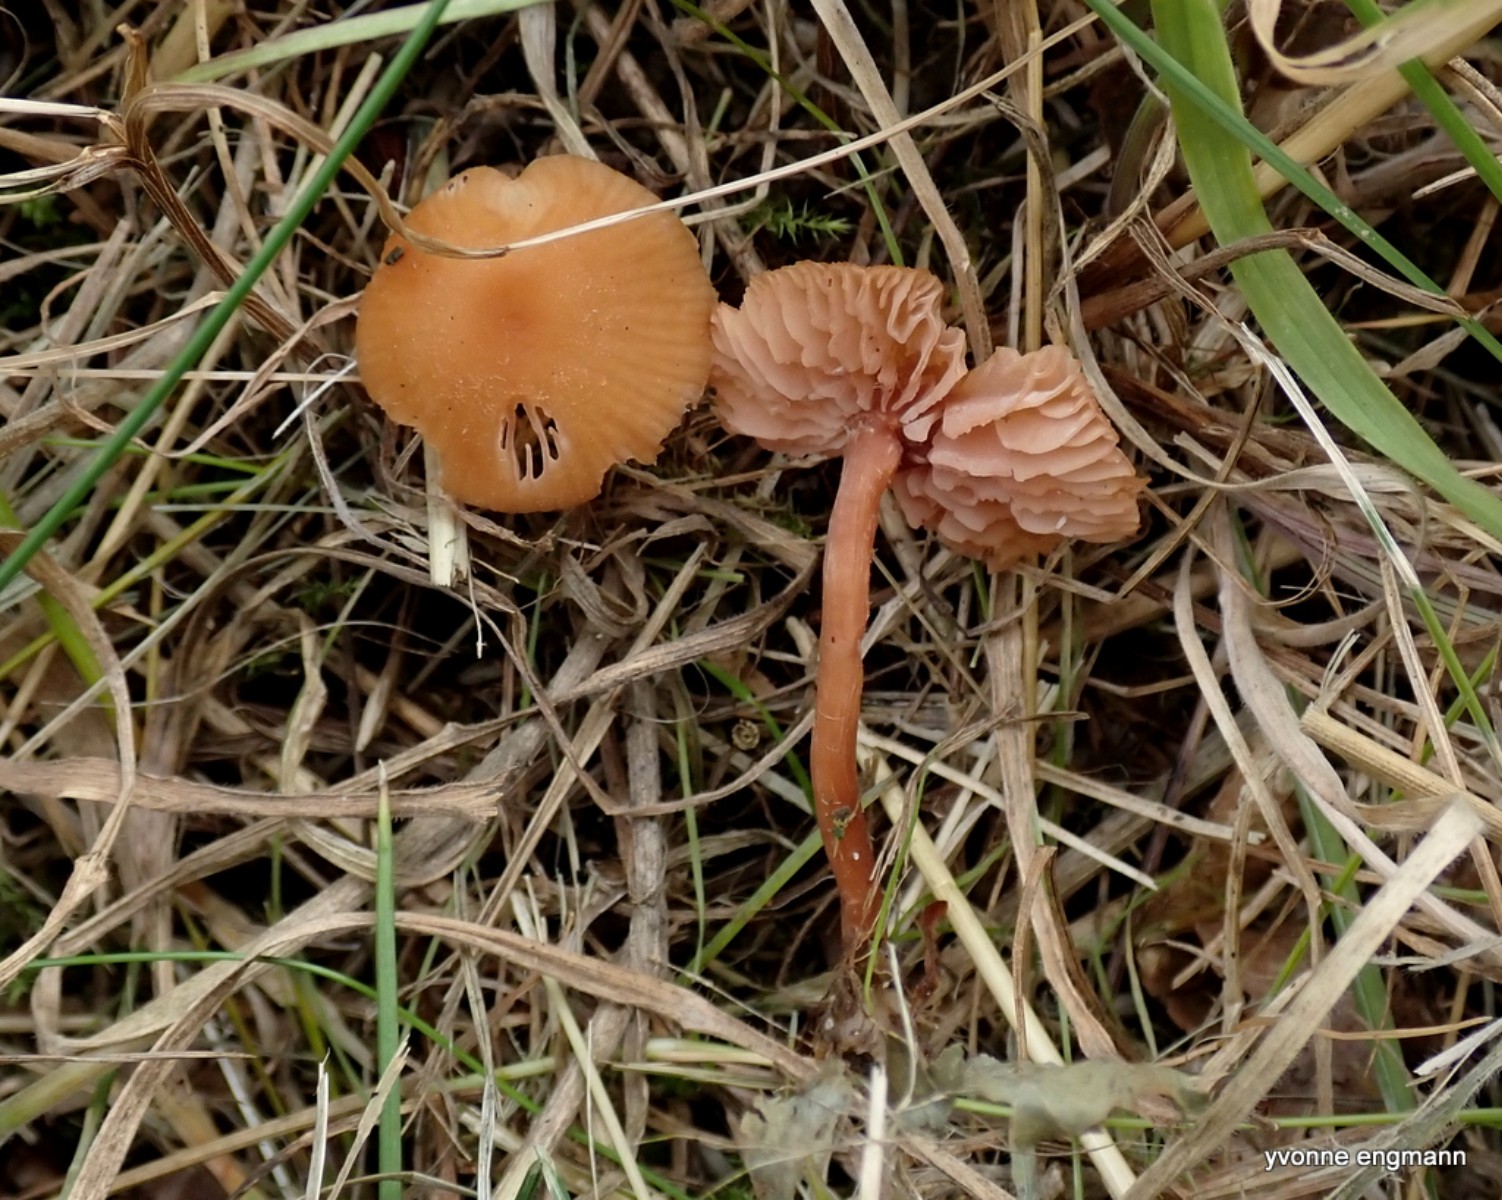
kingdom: Fungi
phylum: Basidiomycota
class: Agaricomycetes
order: Agaricales
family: Hydnangiaceae
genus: Laccaria
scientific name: Laccaria laccata
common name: rød ametysthat
